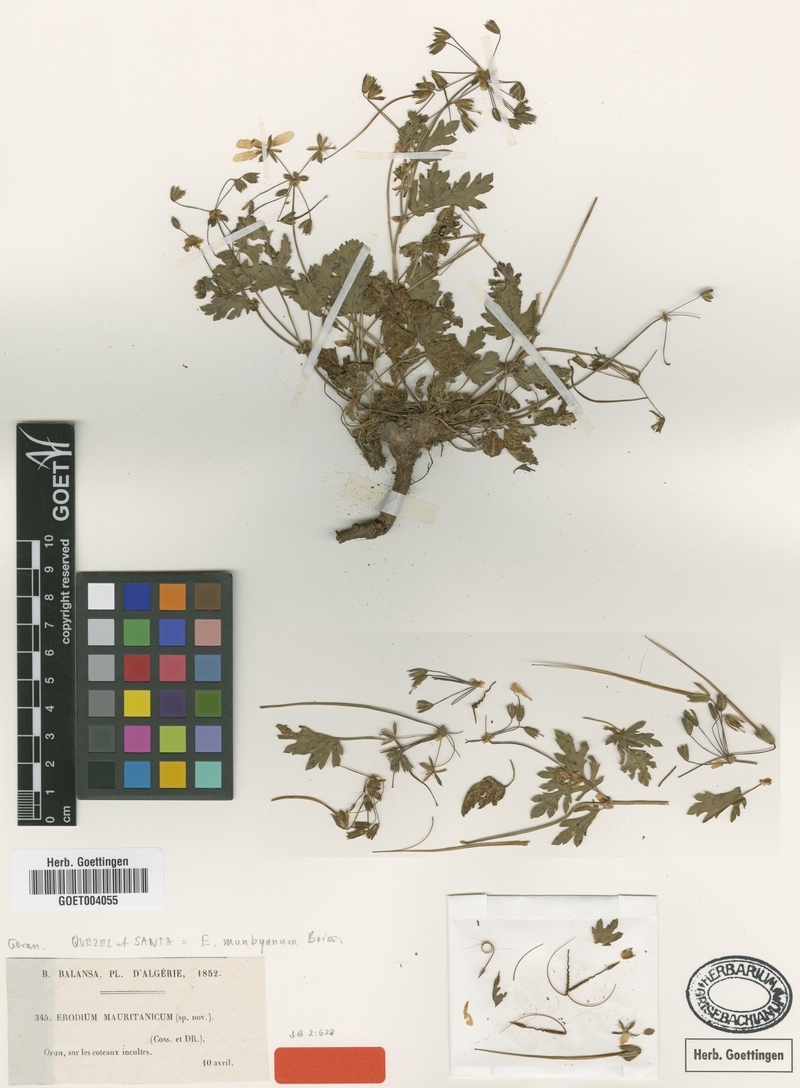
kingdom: Plantae
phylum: Tracheophyta
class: Magnoliopsida
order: Geraniales
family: Geraniaceae
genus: Erodium
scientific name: Erodium munbyanum
